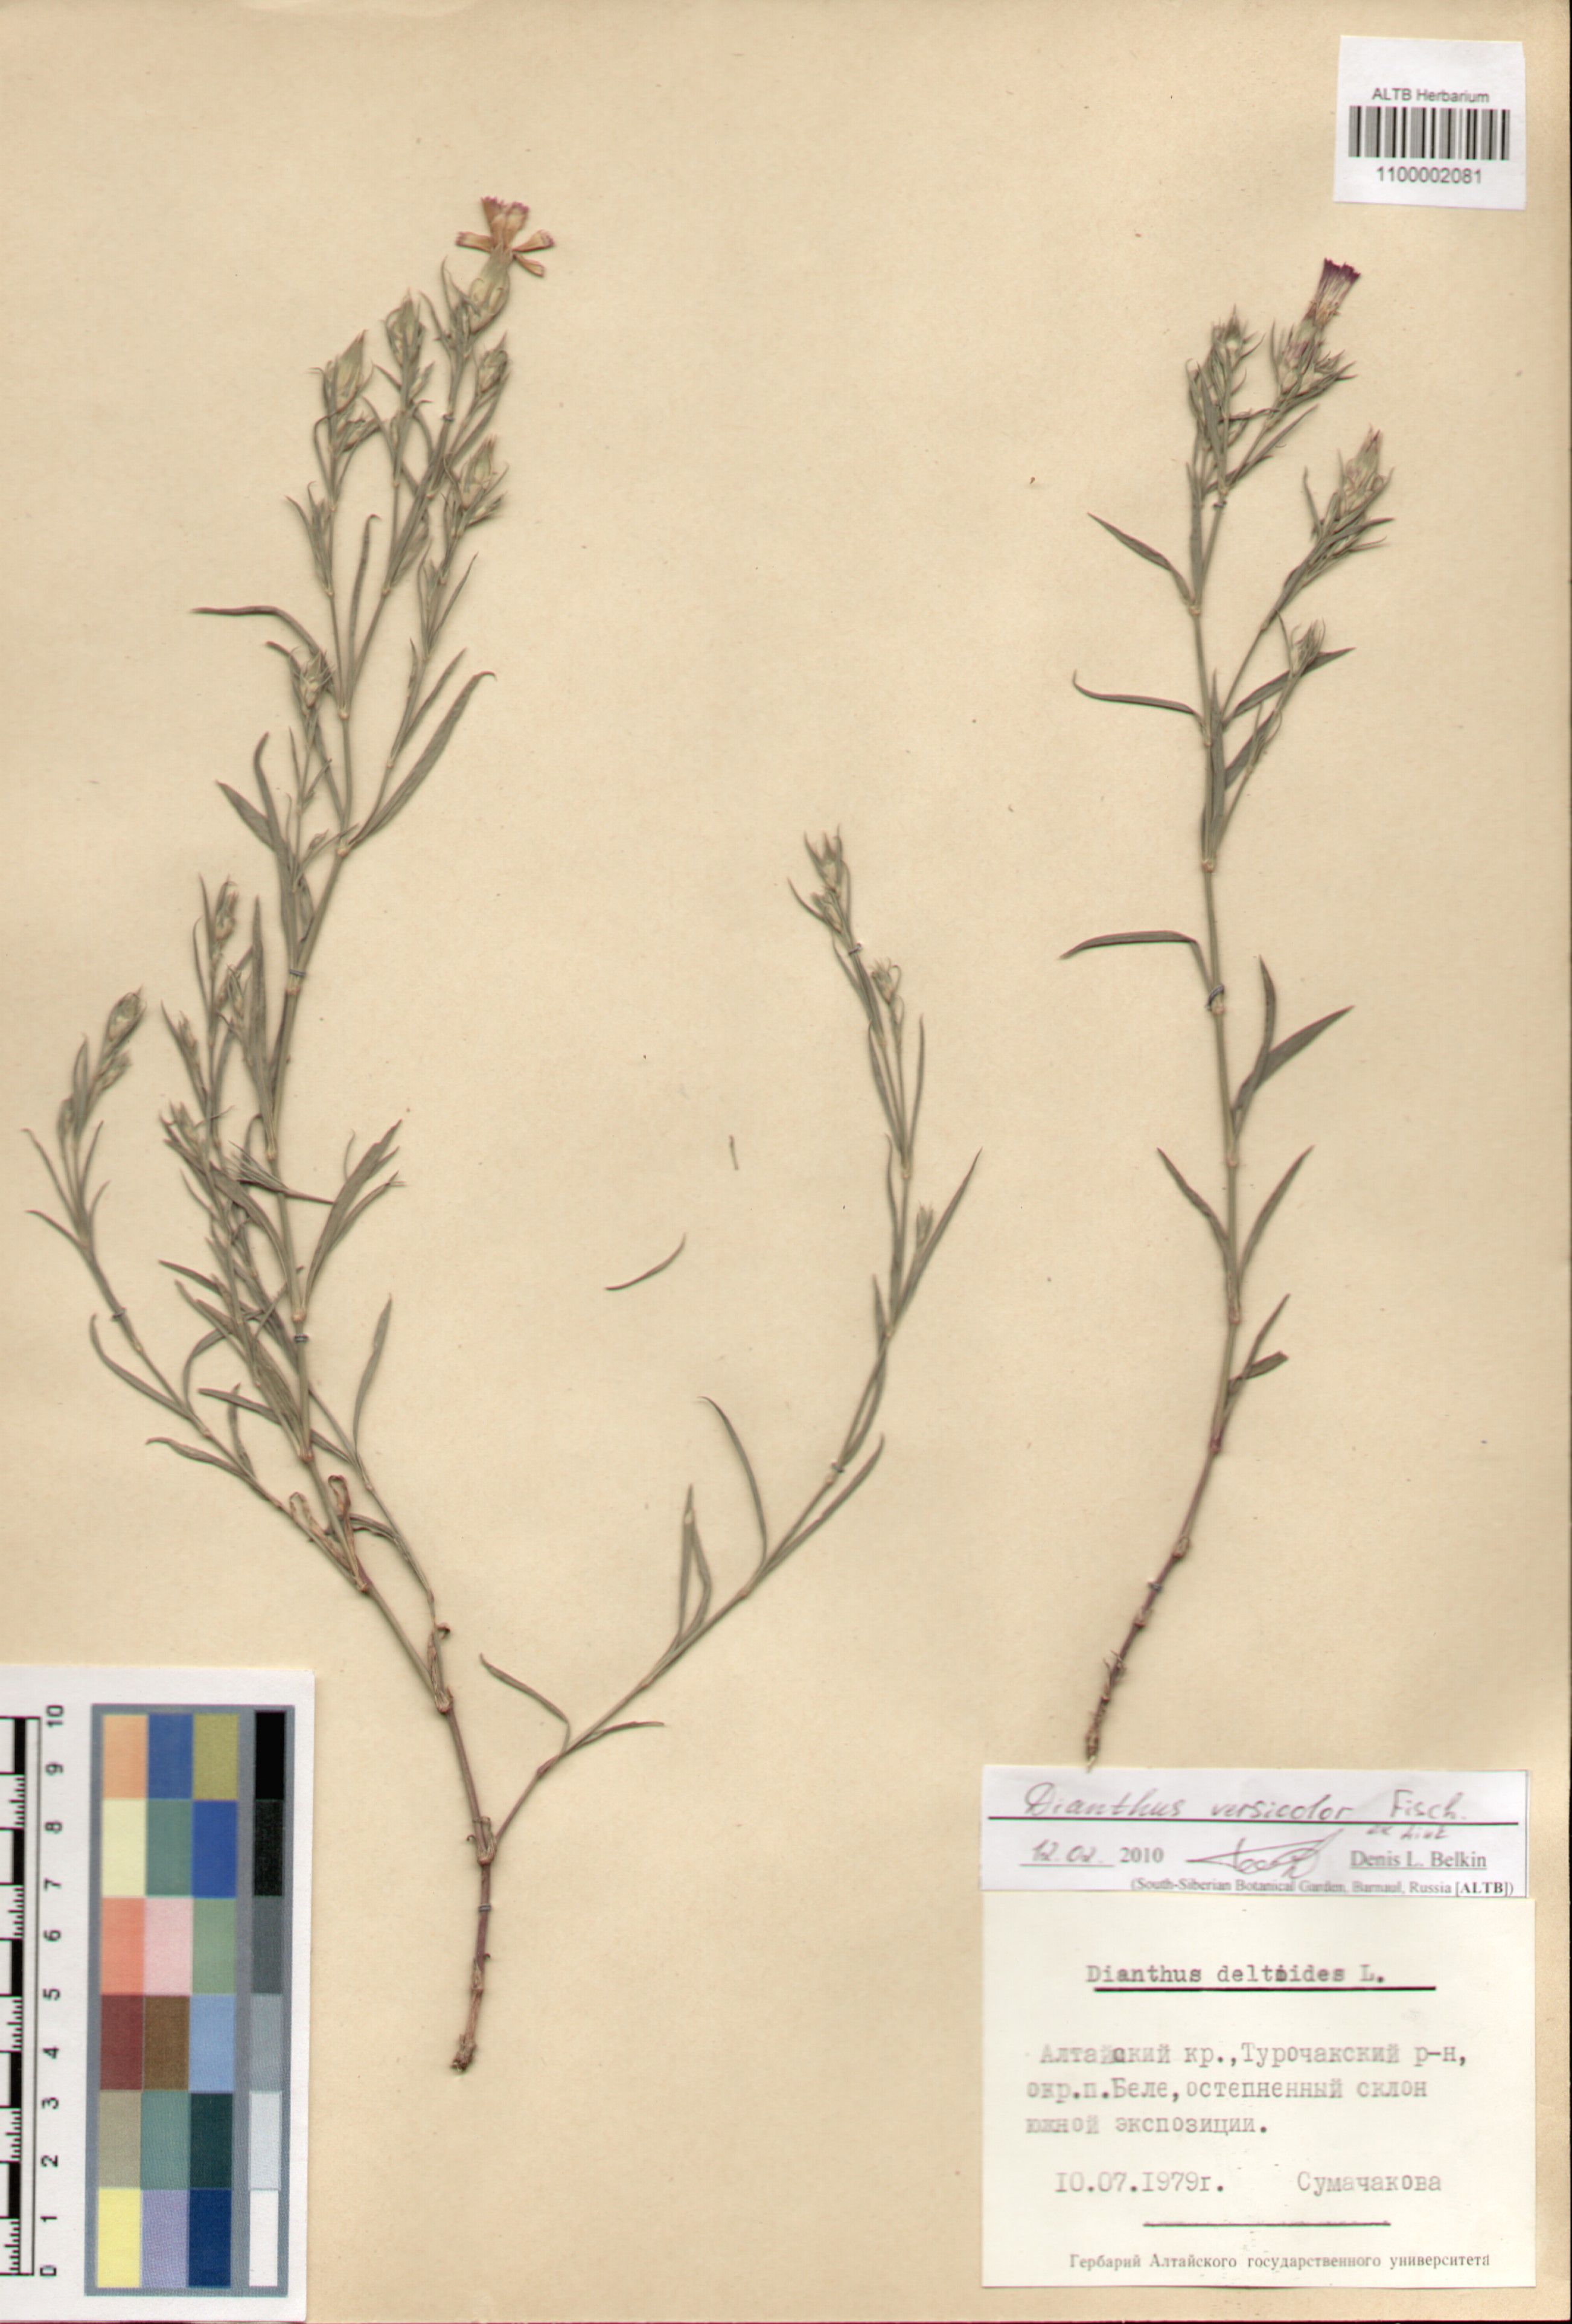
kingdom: Plantae
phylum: Tracheophyta
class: Magnoliopsida
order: Caryophyllales
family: Caryophyllaceae
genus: Dianthus
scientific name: Dianthus chinensis
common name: Rainbow pink
